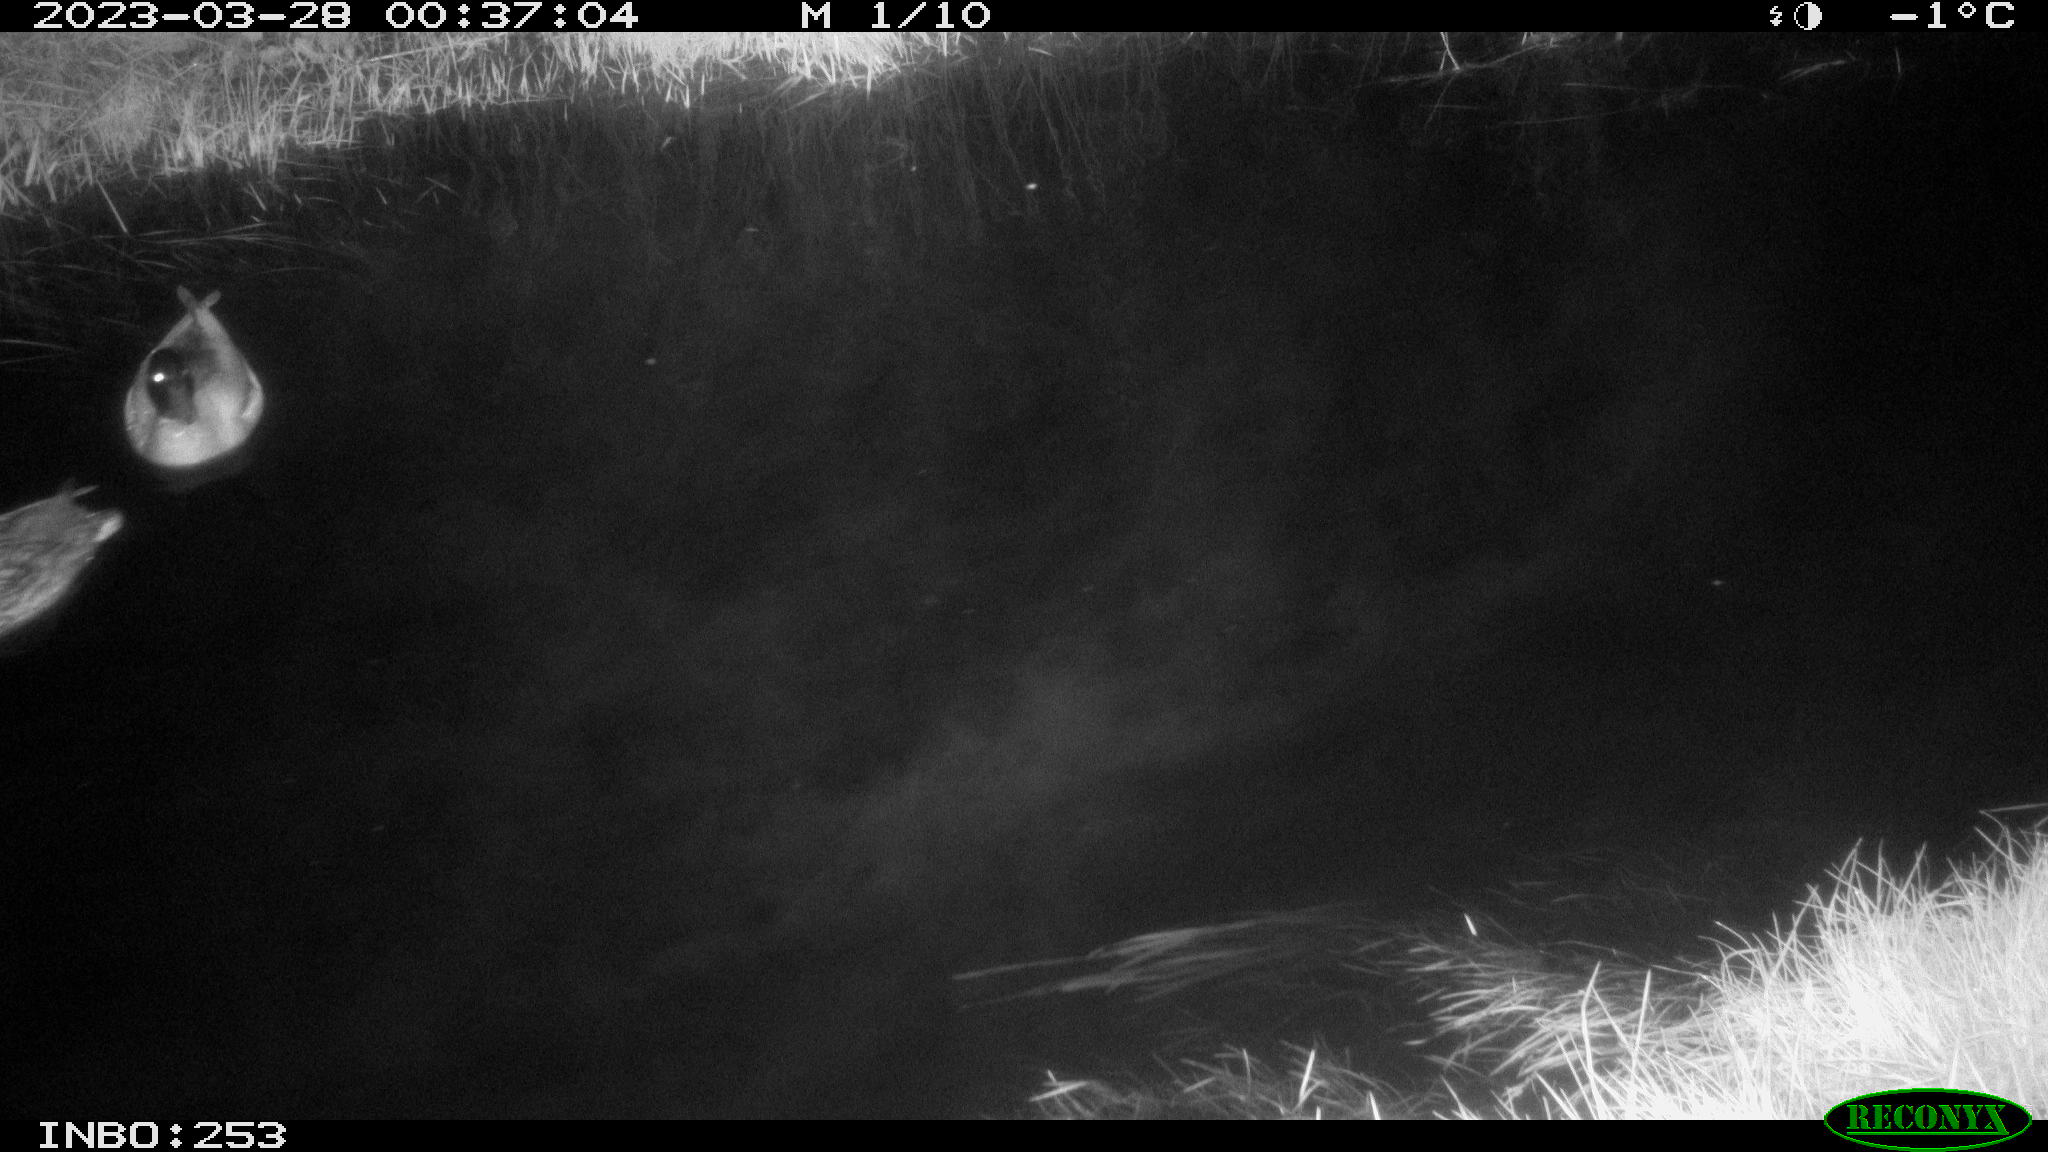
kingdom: Animalia
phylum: Chordata
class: Aves
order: Anseriformes
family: Anatidae
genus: Anas
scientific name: Anas
